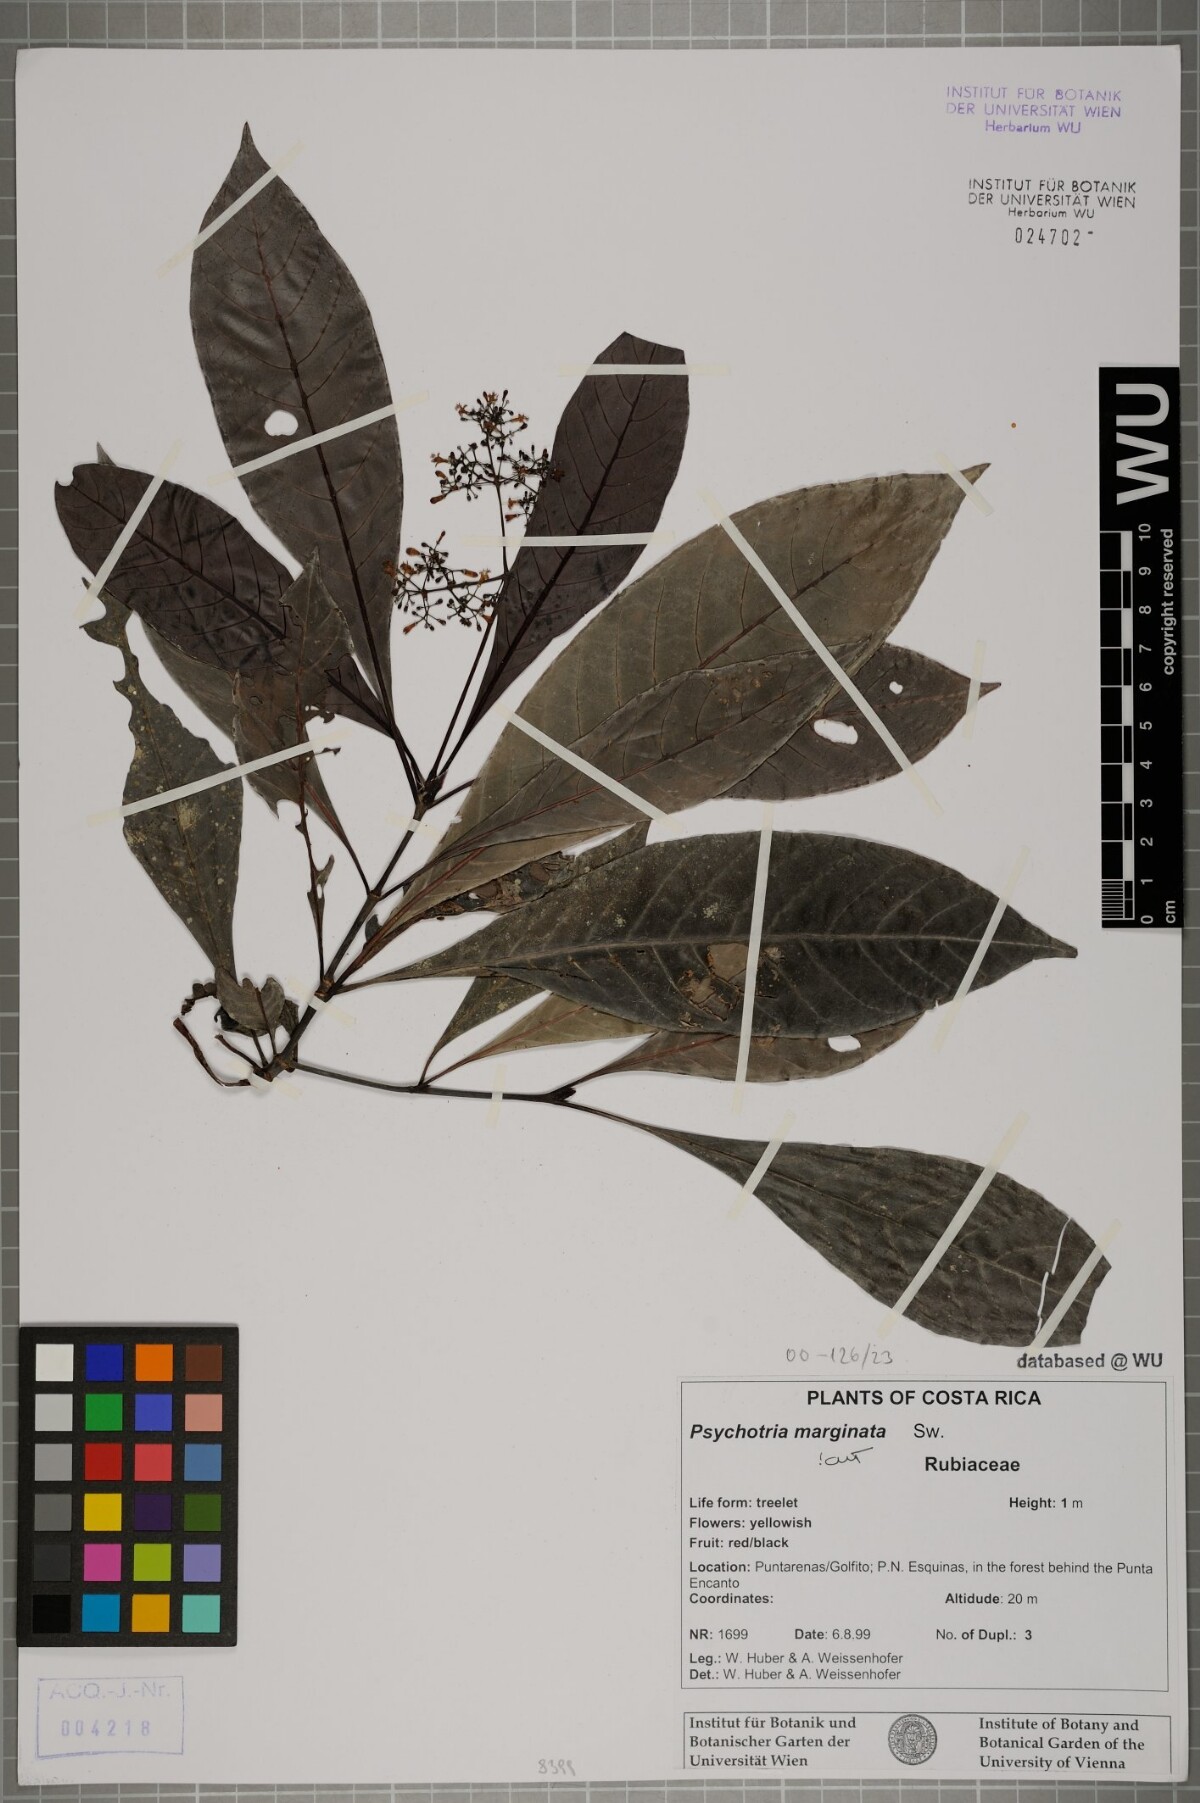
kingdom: Plantae
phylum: Tracheophyta
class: Magnoliopsida
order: Gentianales
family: Rubiaceae
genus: Psychotria
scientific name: Psychotria marginata
